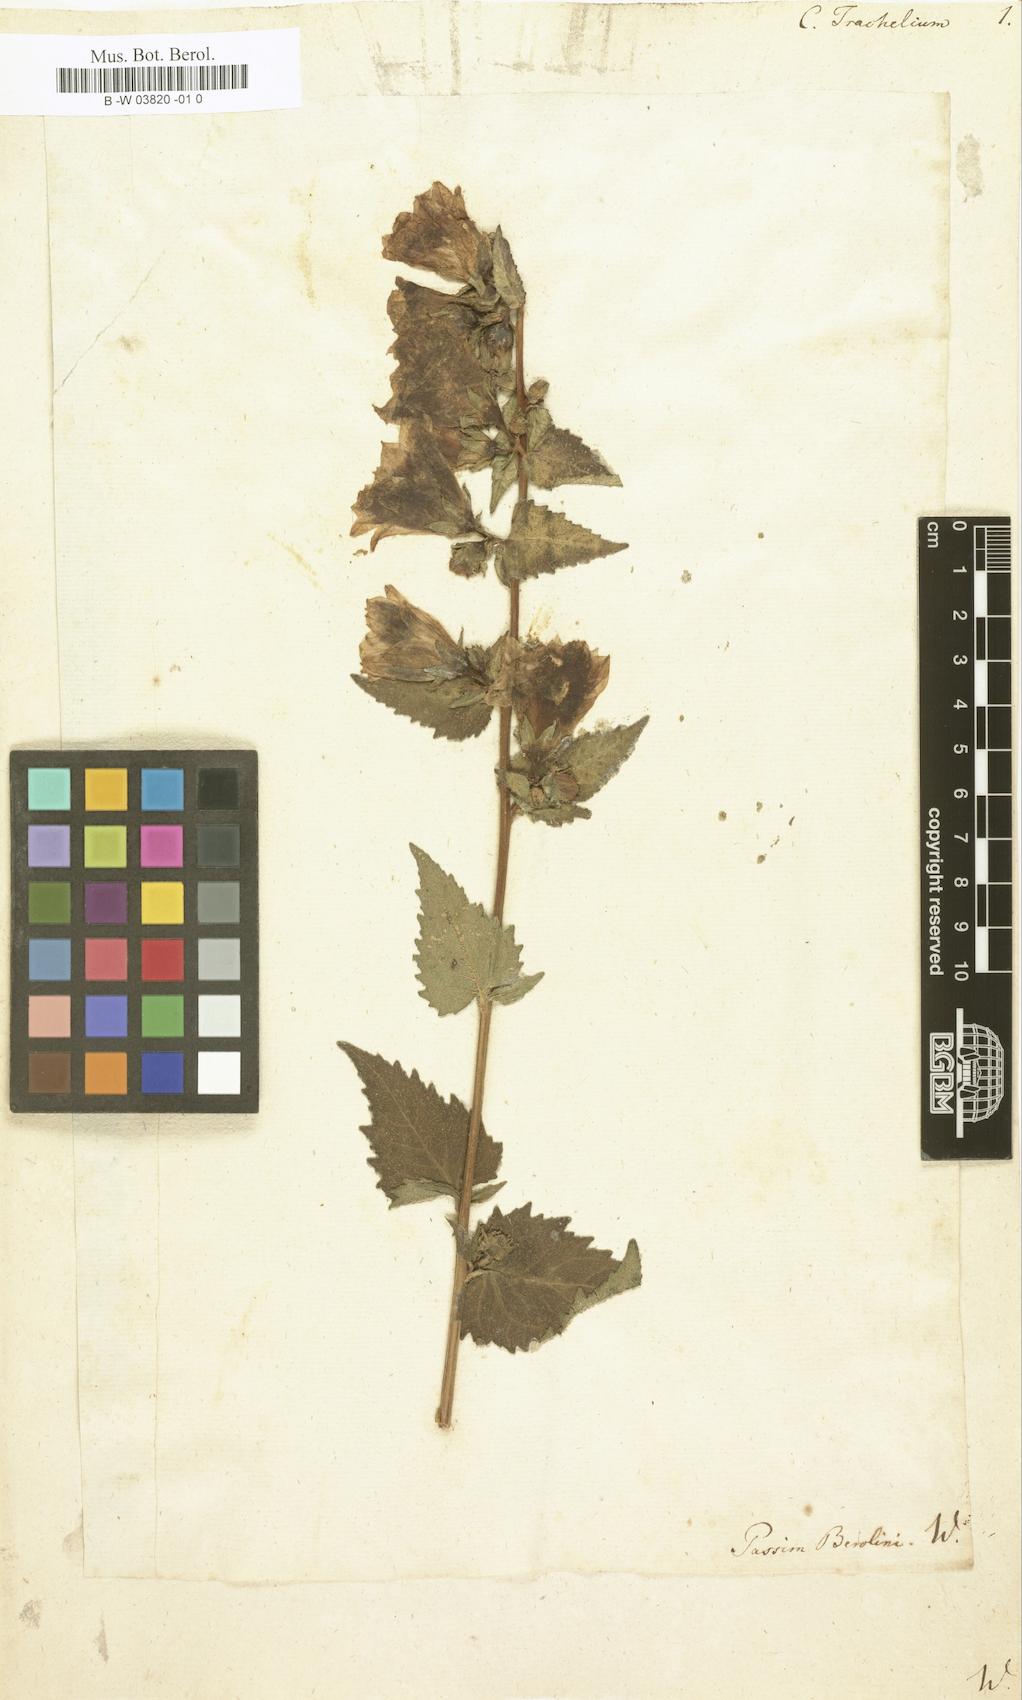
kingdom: Plantae
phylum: Tracheophyta
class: Magnoliopsida
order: Asterales
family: Campanulaceae
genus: Campanula
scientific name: Campanula trachelium
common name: Nettle-leaved bellflower
